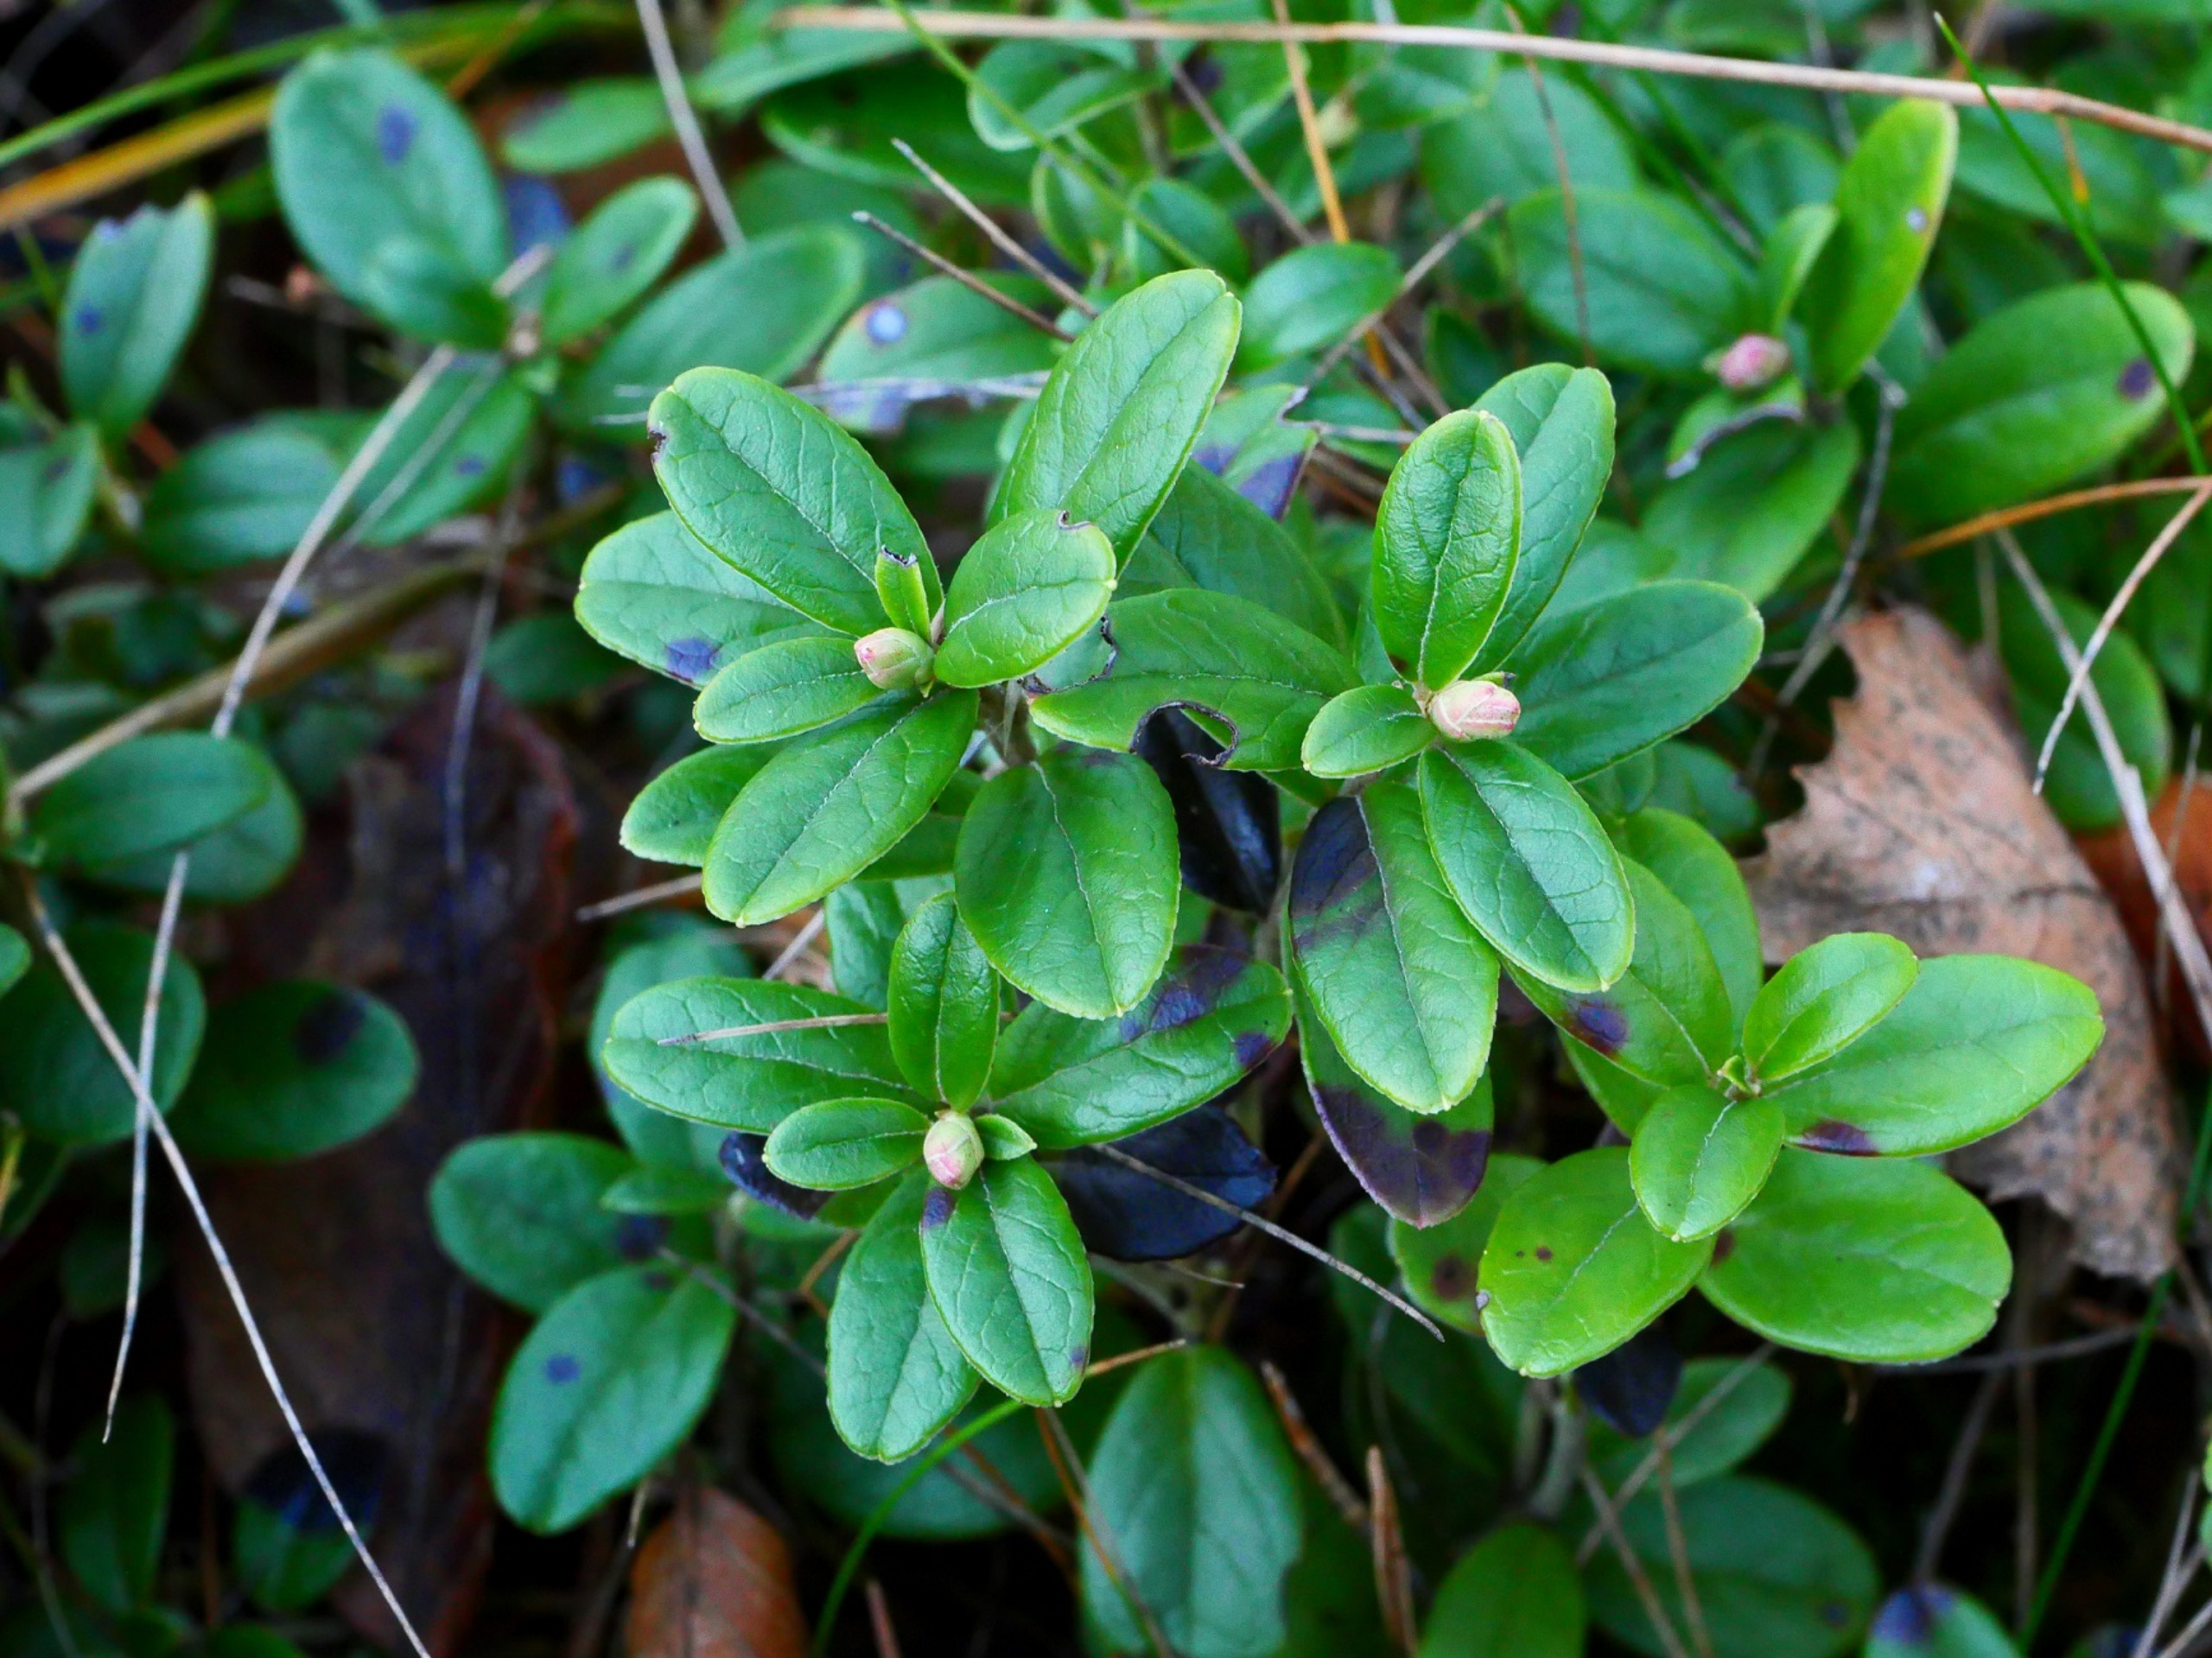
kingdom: Plantae
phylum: Tracheophyta
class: Magnoliopsida
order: Ericales
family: Ericaceae
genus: Vaccinium
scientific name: Vaccinium vitis-idaea
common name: Tyttebær
